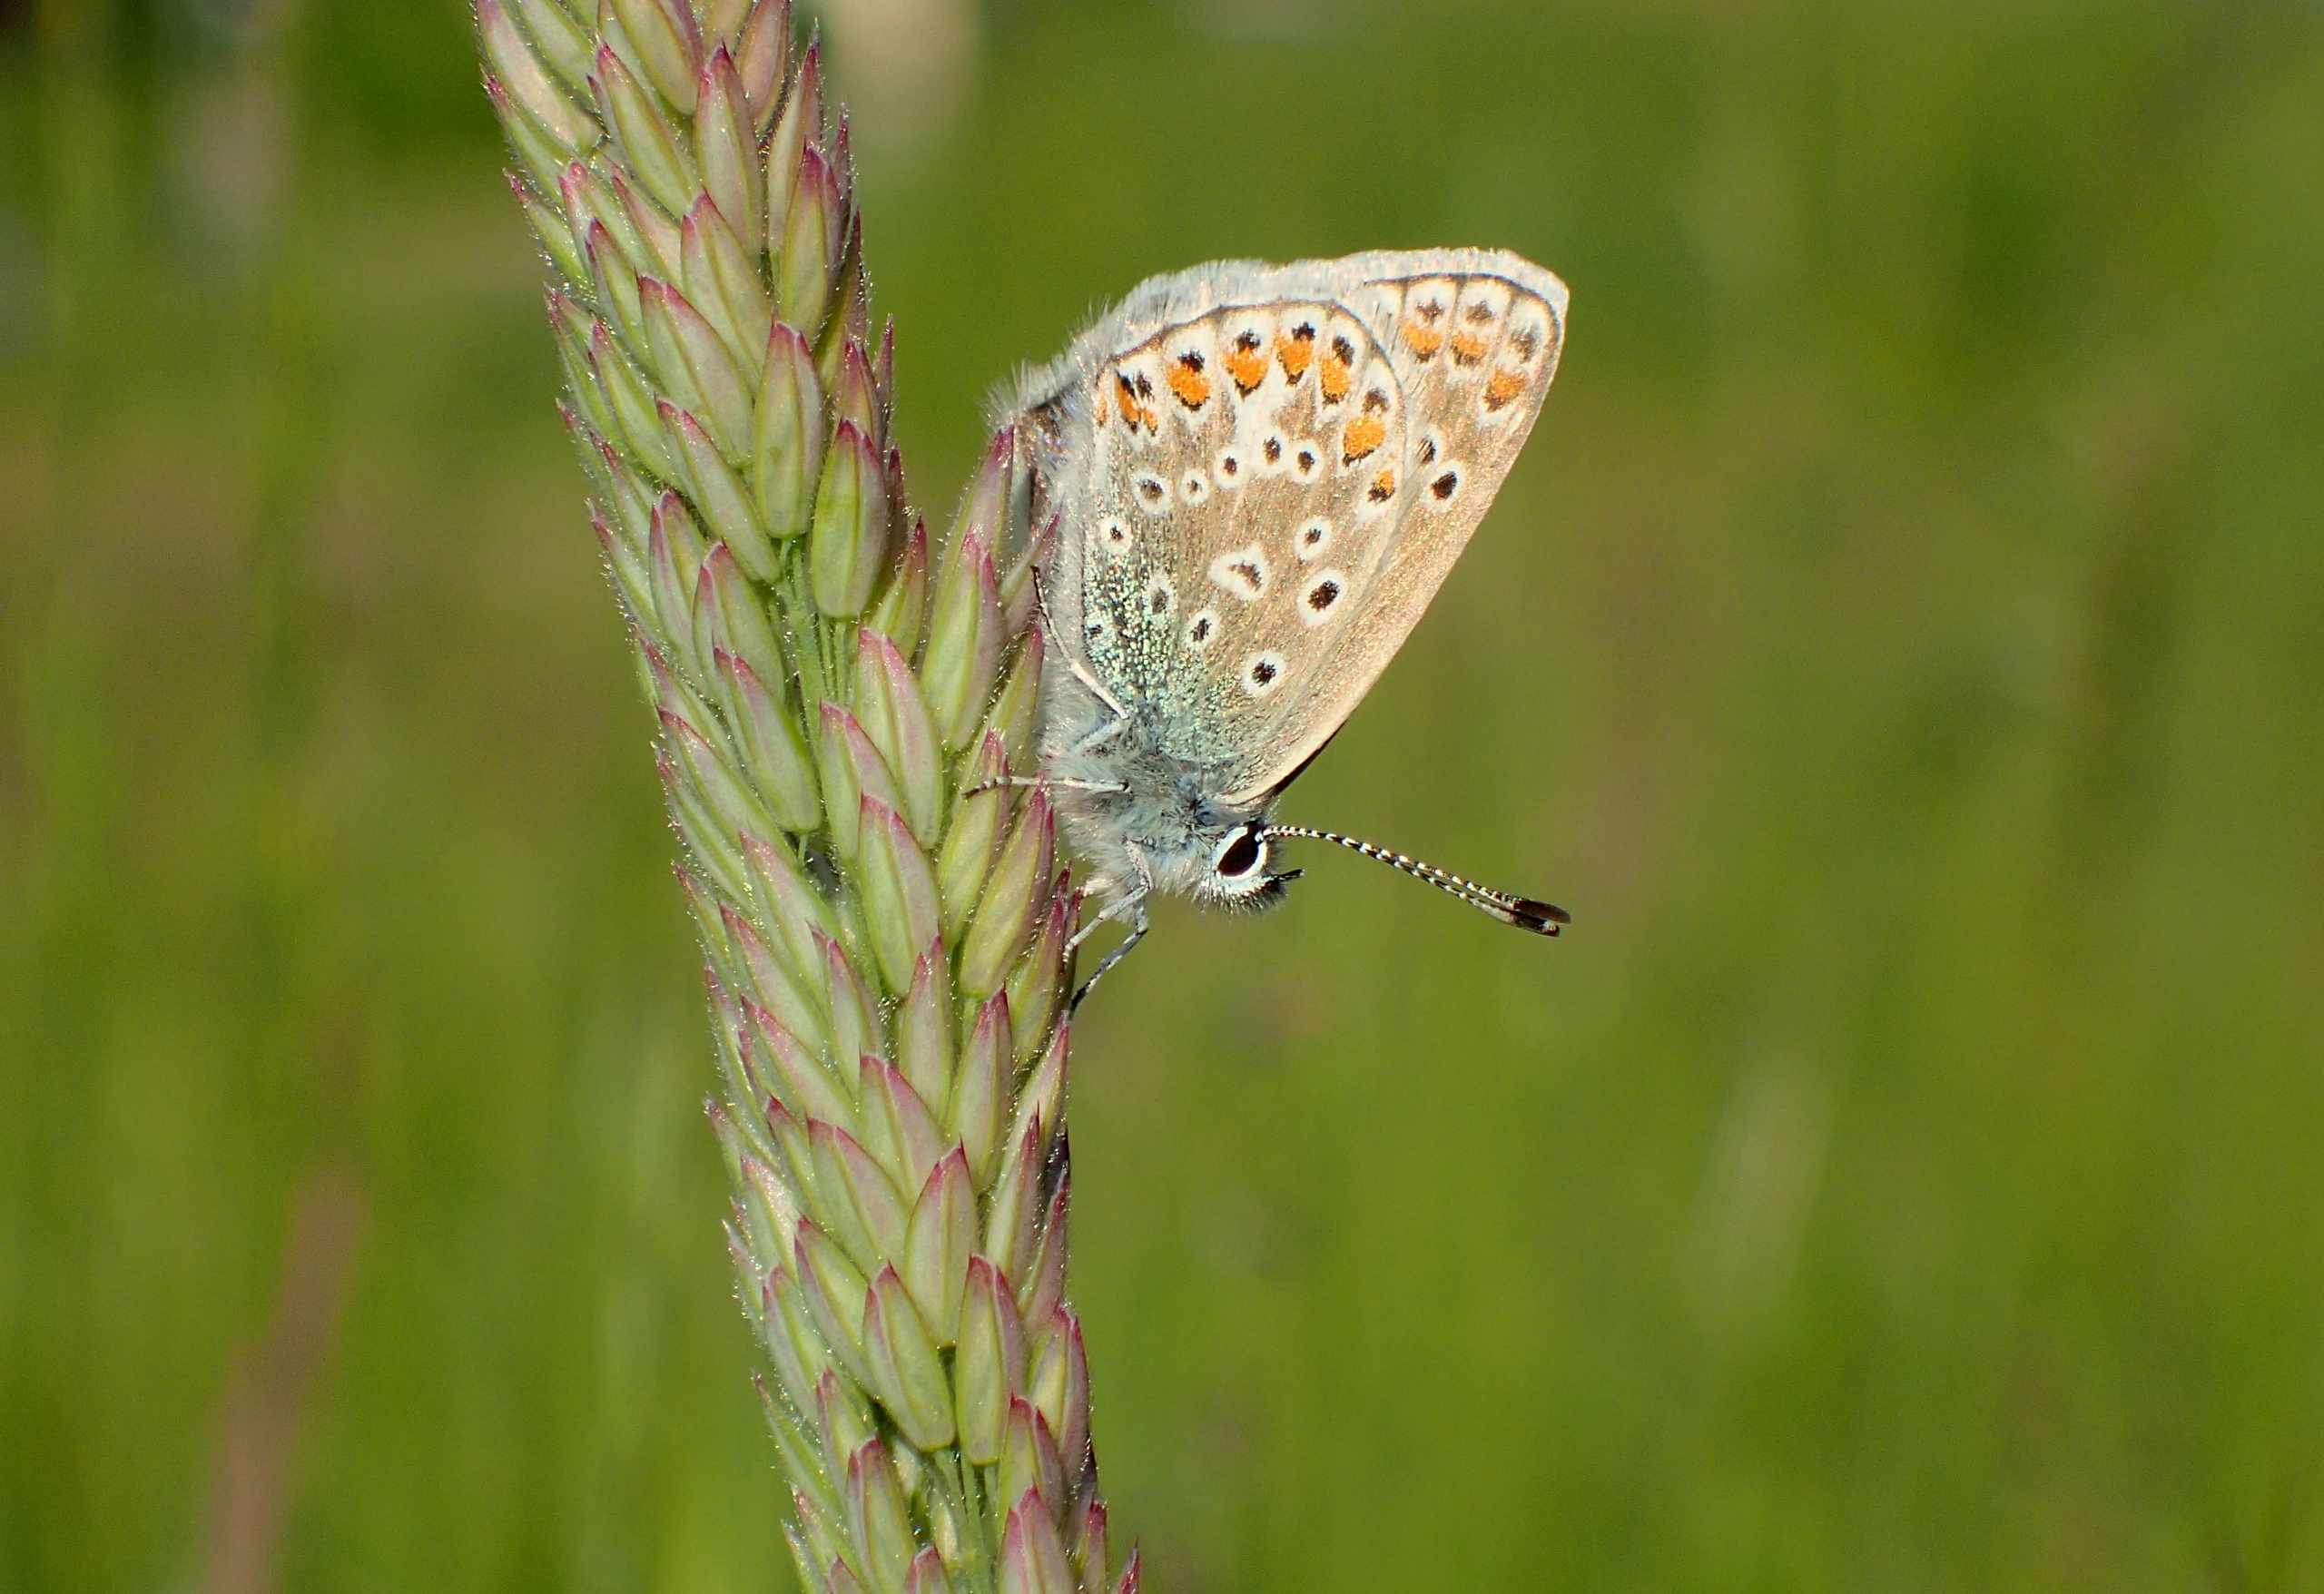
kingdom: Animalia
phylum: Arthropoda
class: Insecta
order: Lepidoptera
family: Lycaenidae
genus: Polyommatus
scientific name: Polyommatus icarus
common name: Almindelig blåfugl
